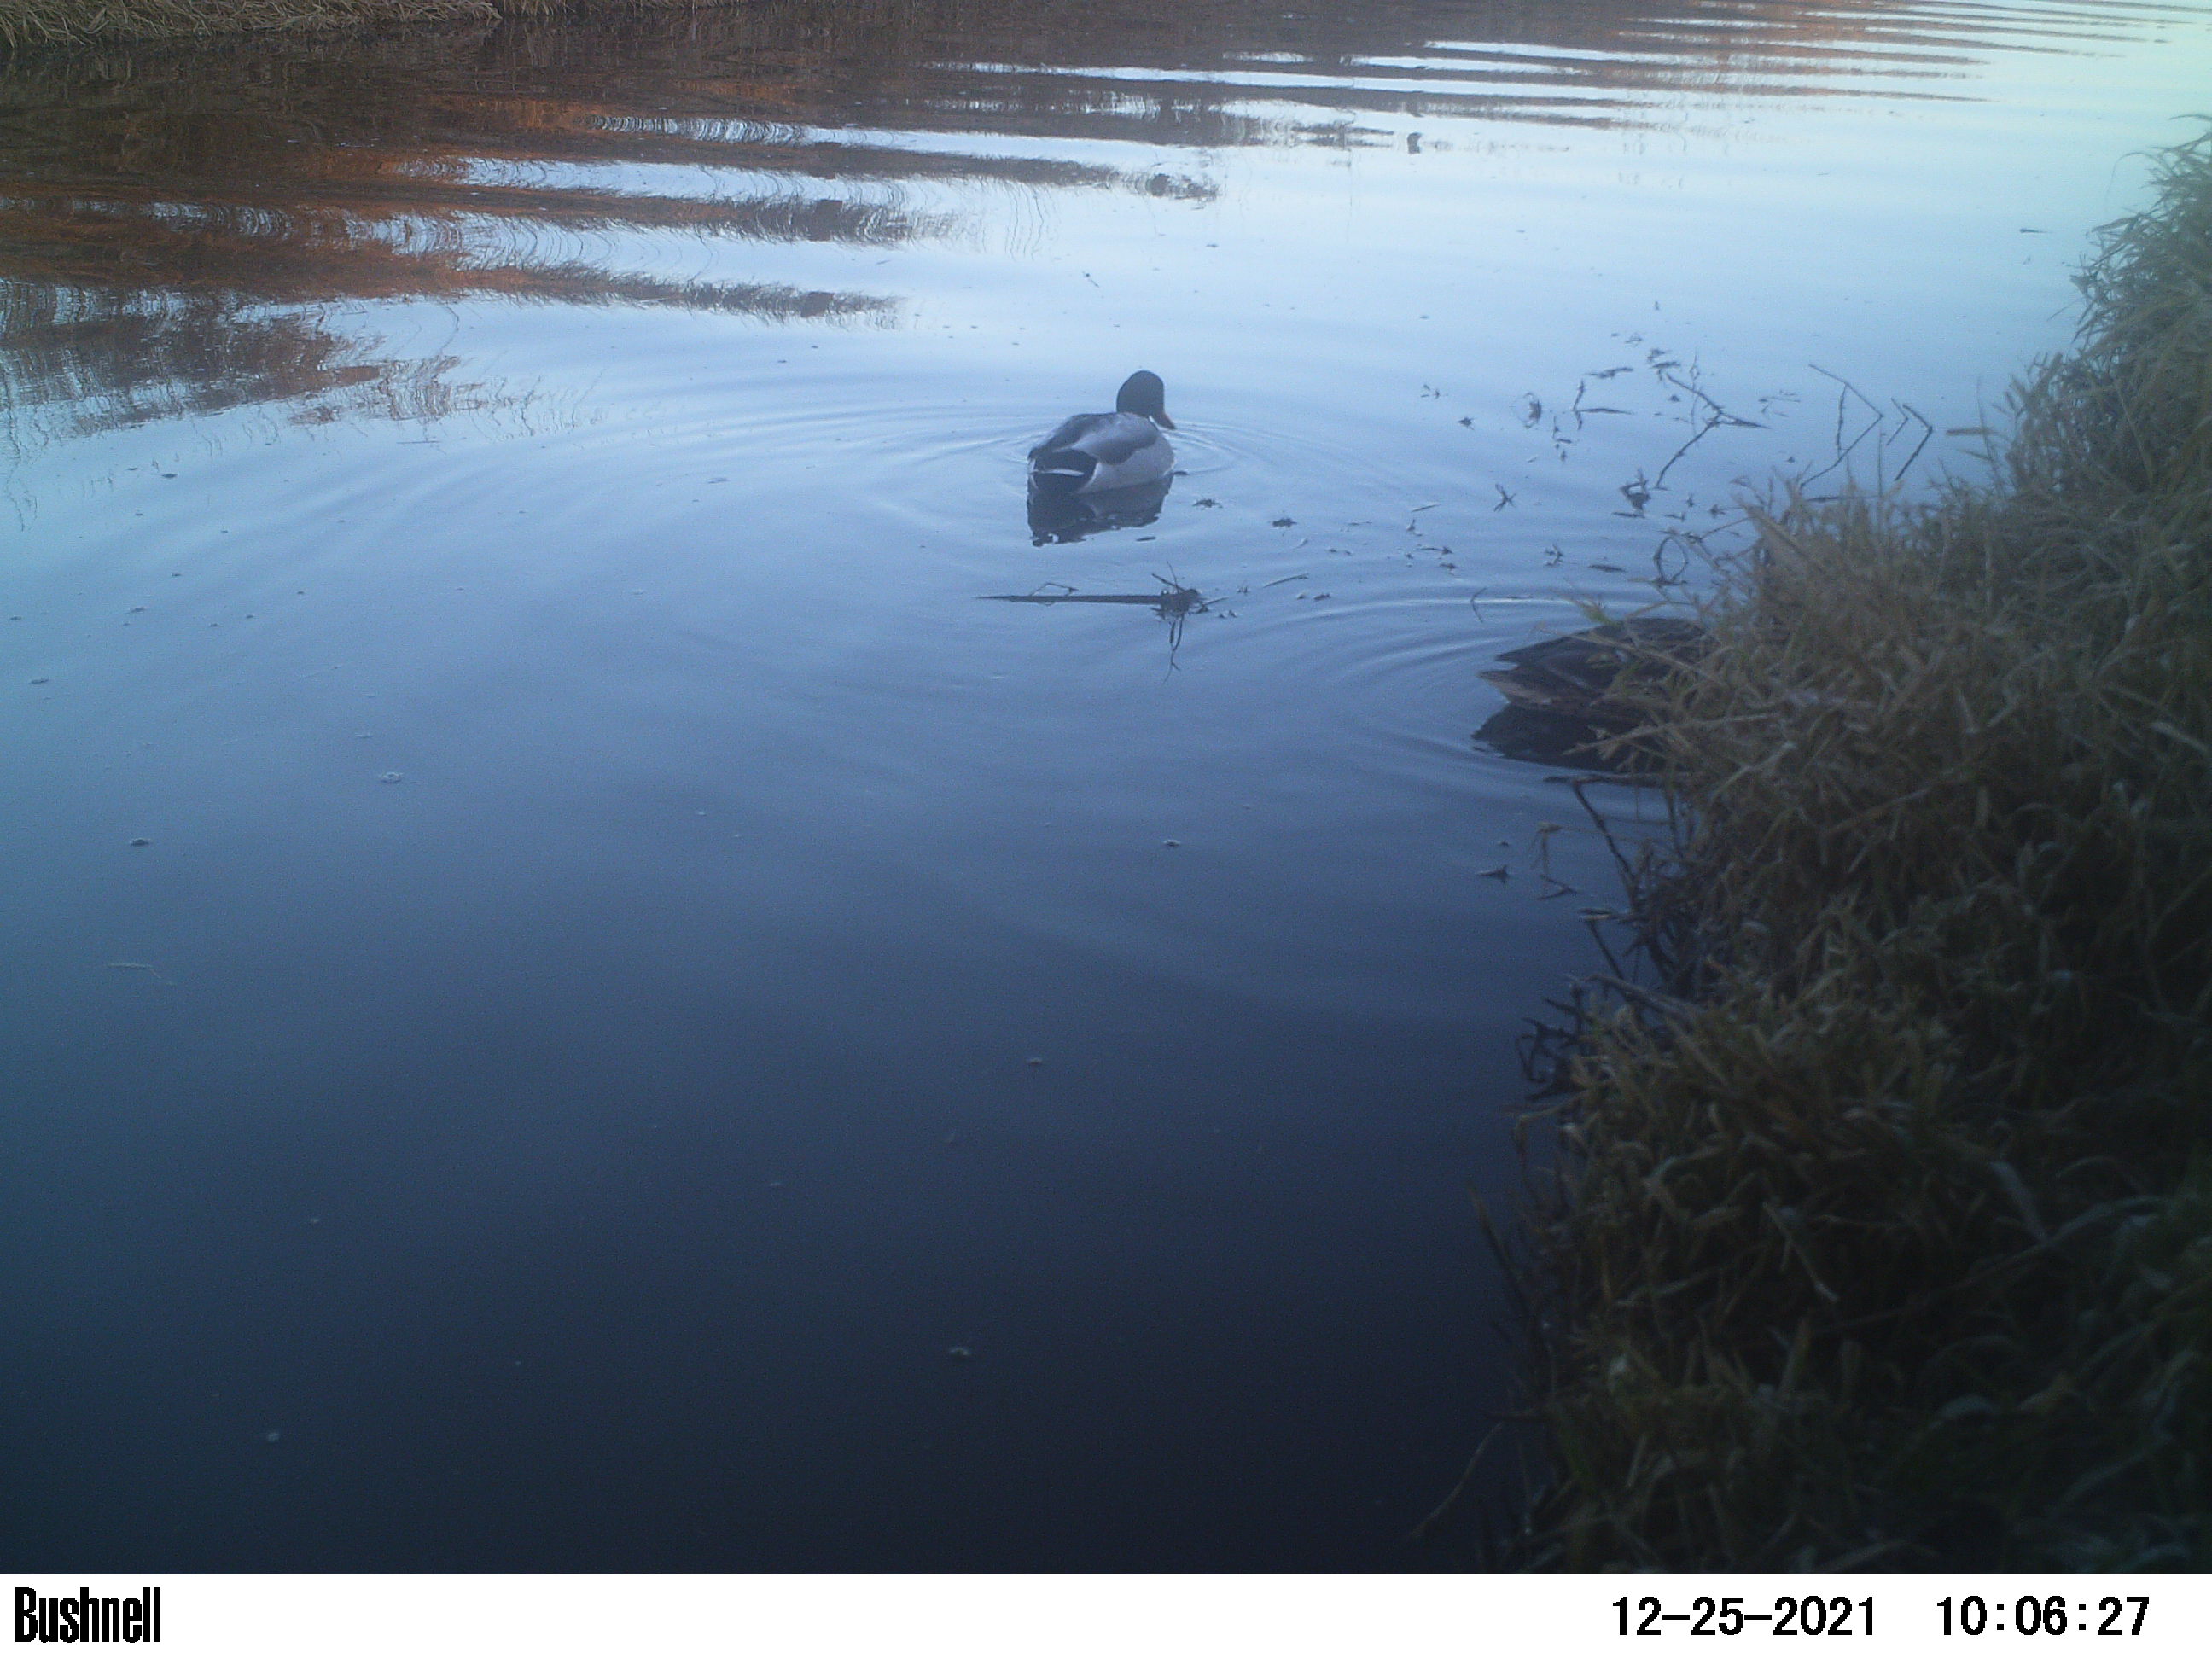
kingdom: Animalia
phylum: Chordata
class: Aves
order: Gruiformes
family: Rallidae
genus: Fulica
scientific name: Fulica atra
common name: Eurasian coot
